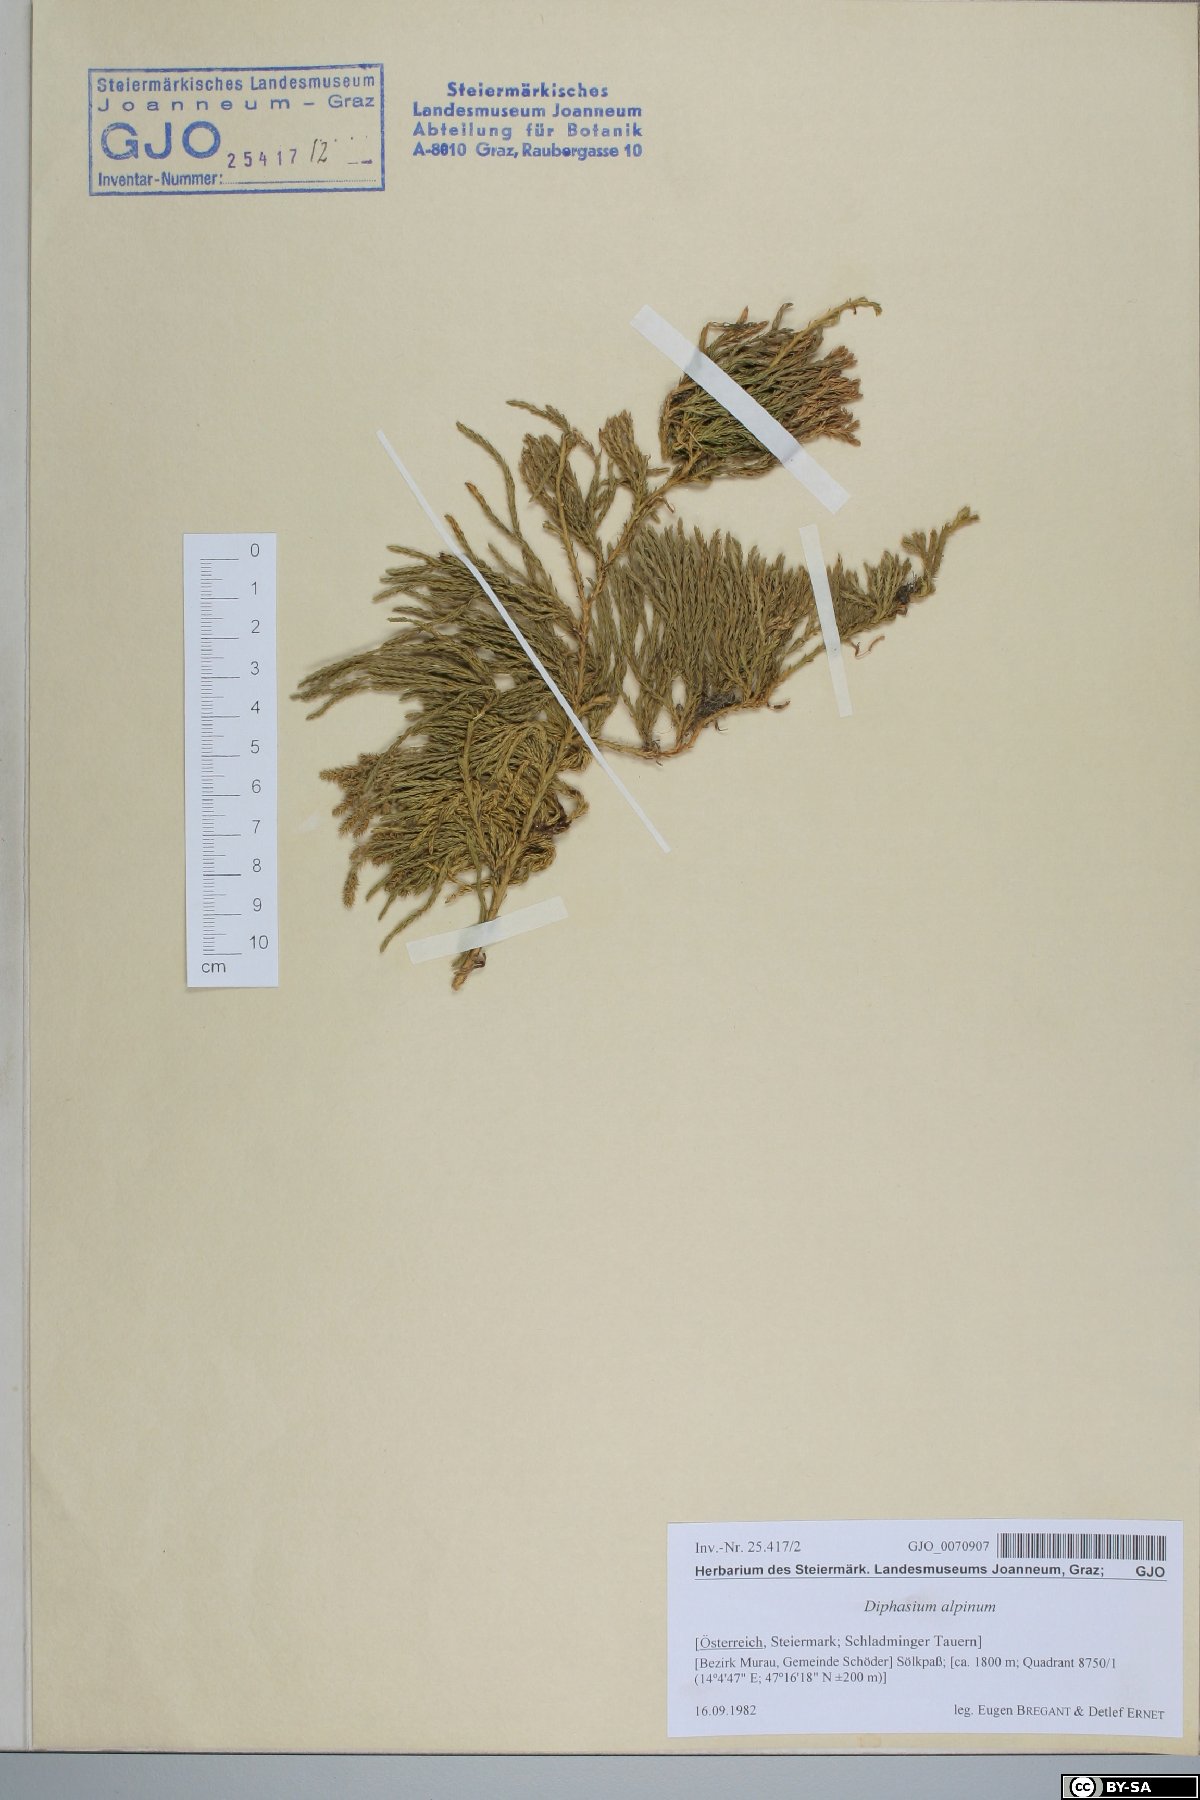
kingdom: Plantae
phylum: Tracheophyta
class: Lycopodiopsida
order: Lycopodiales
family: Lycopodiaceae
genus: Diphasiastrum
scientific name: Diphasiastrum alpinum
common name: Alpine clubmoss
